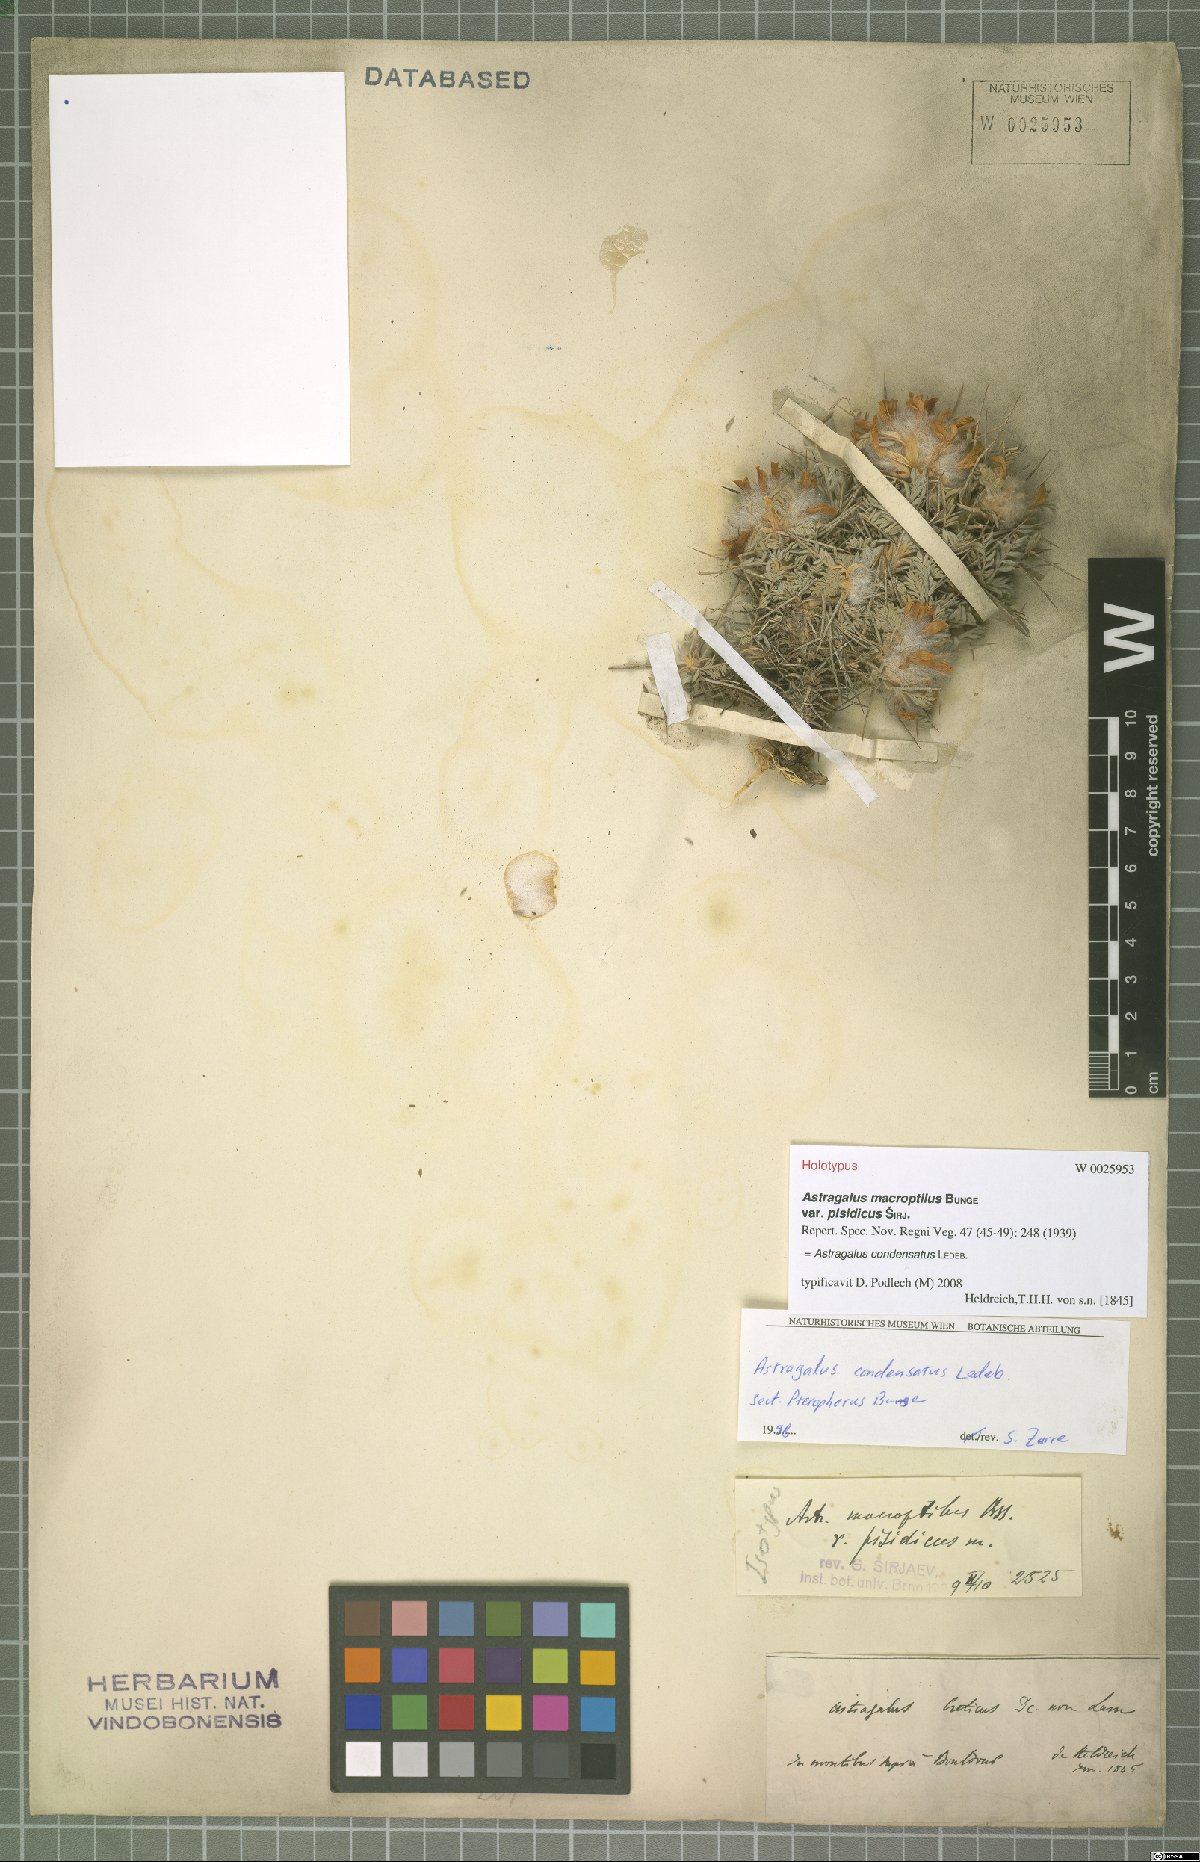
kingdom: Plantae
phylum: Tracheophyta
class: Magnoliopsida
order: Fabales
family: Fabaceae
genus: Astragalus
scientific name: Astragalus condensatus
